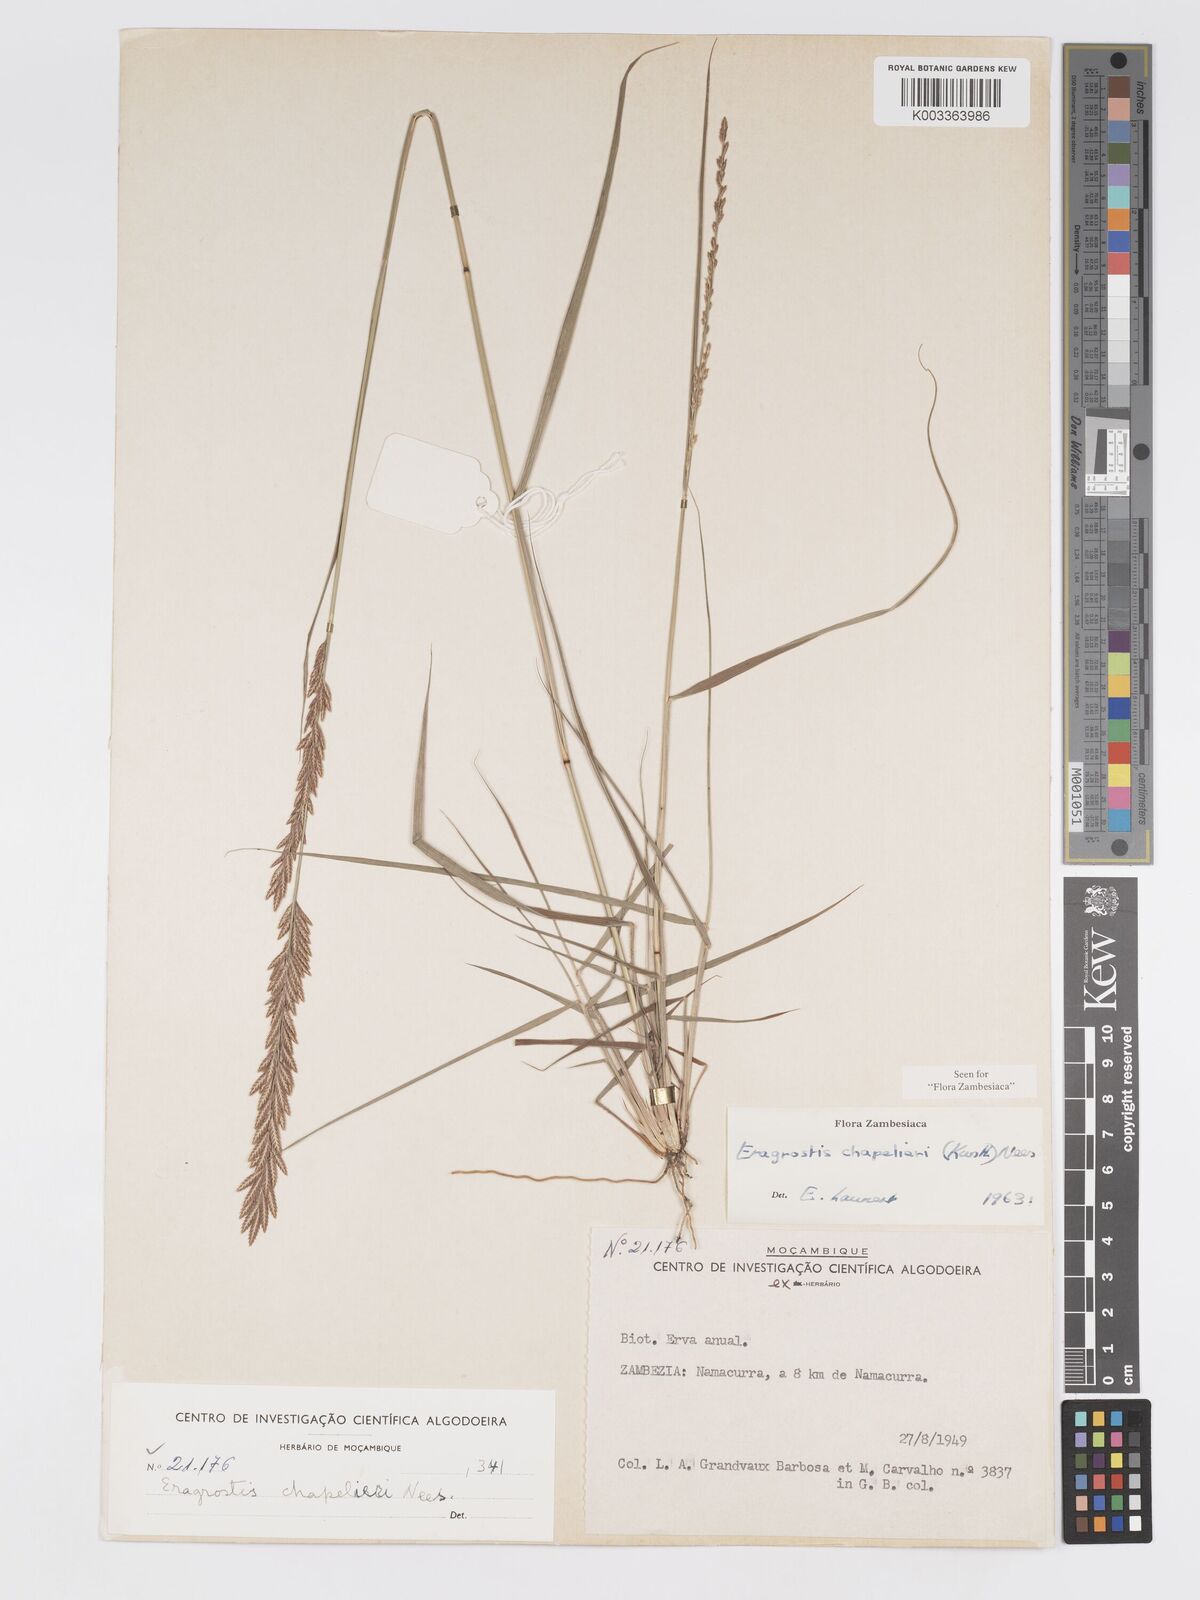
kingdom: Plantae
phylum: Tracheophyta
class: Liliopsida
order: Poales
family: Poaceae
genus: Eragrostis
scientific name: Eragrostis chapelieri
